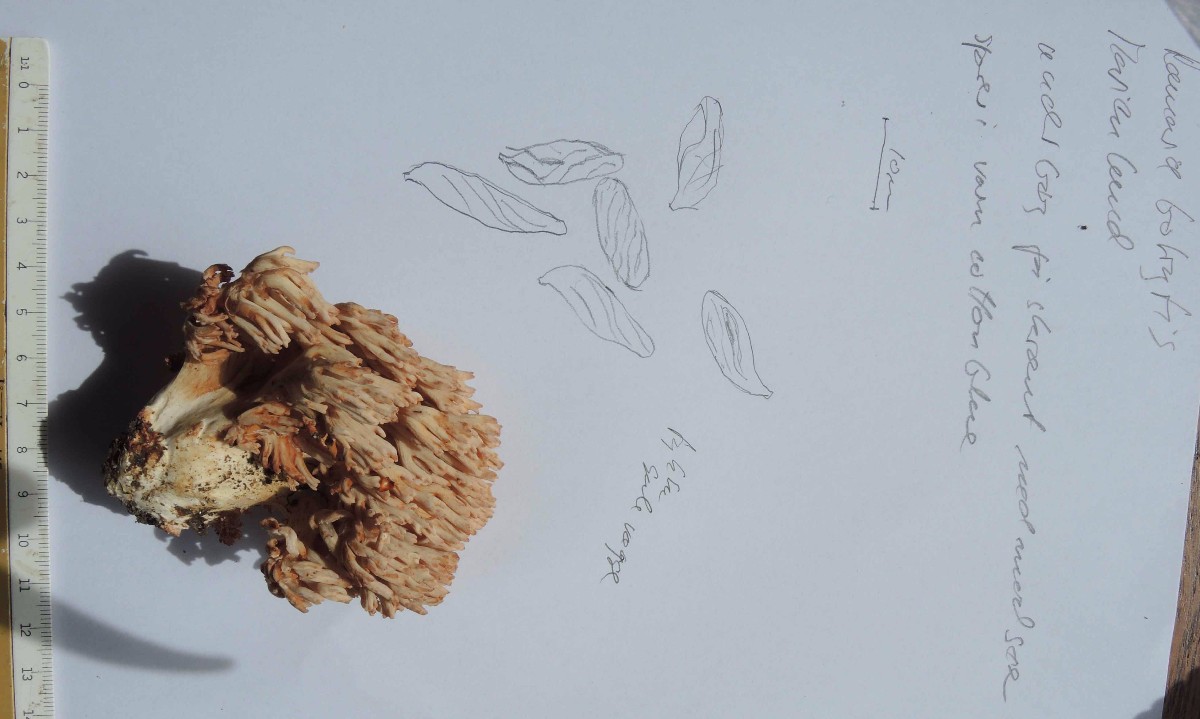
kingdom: Fungi
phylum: Basidiomycota
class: Agaricomycetes
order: Gomphales
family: Gomphaceae
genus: Ramaria
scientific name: Ramaria botrytis
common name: drue-koralsvamp
